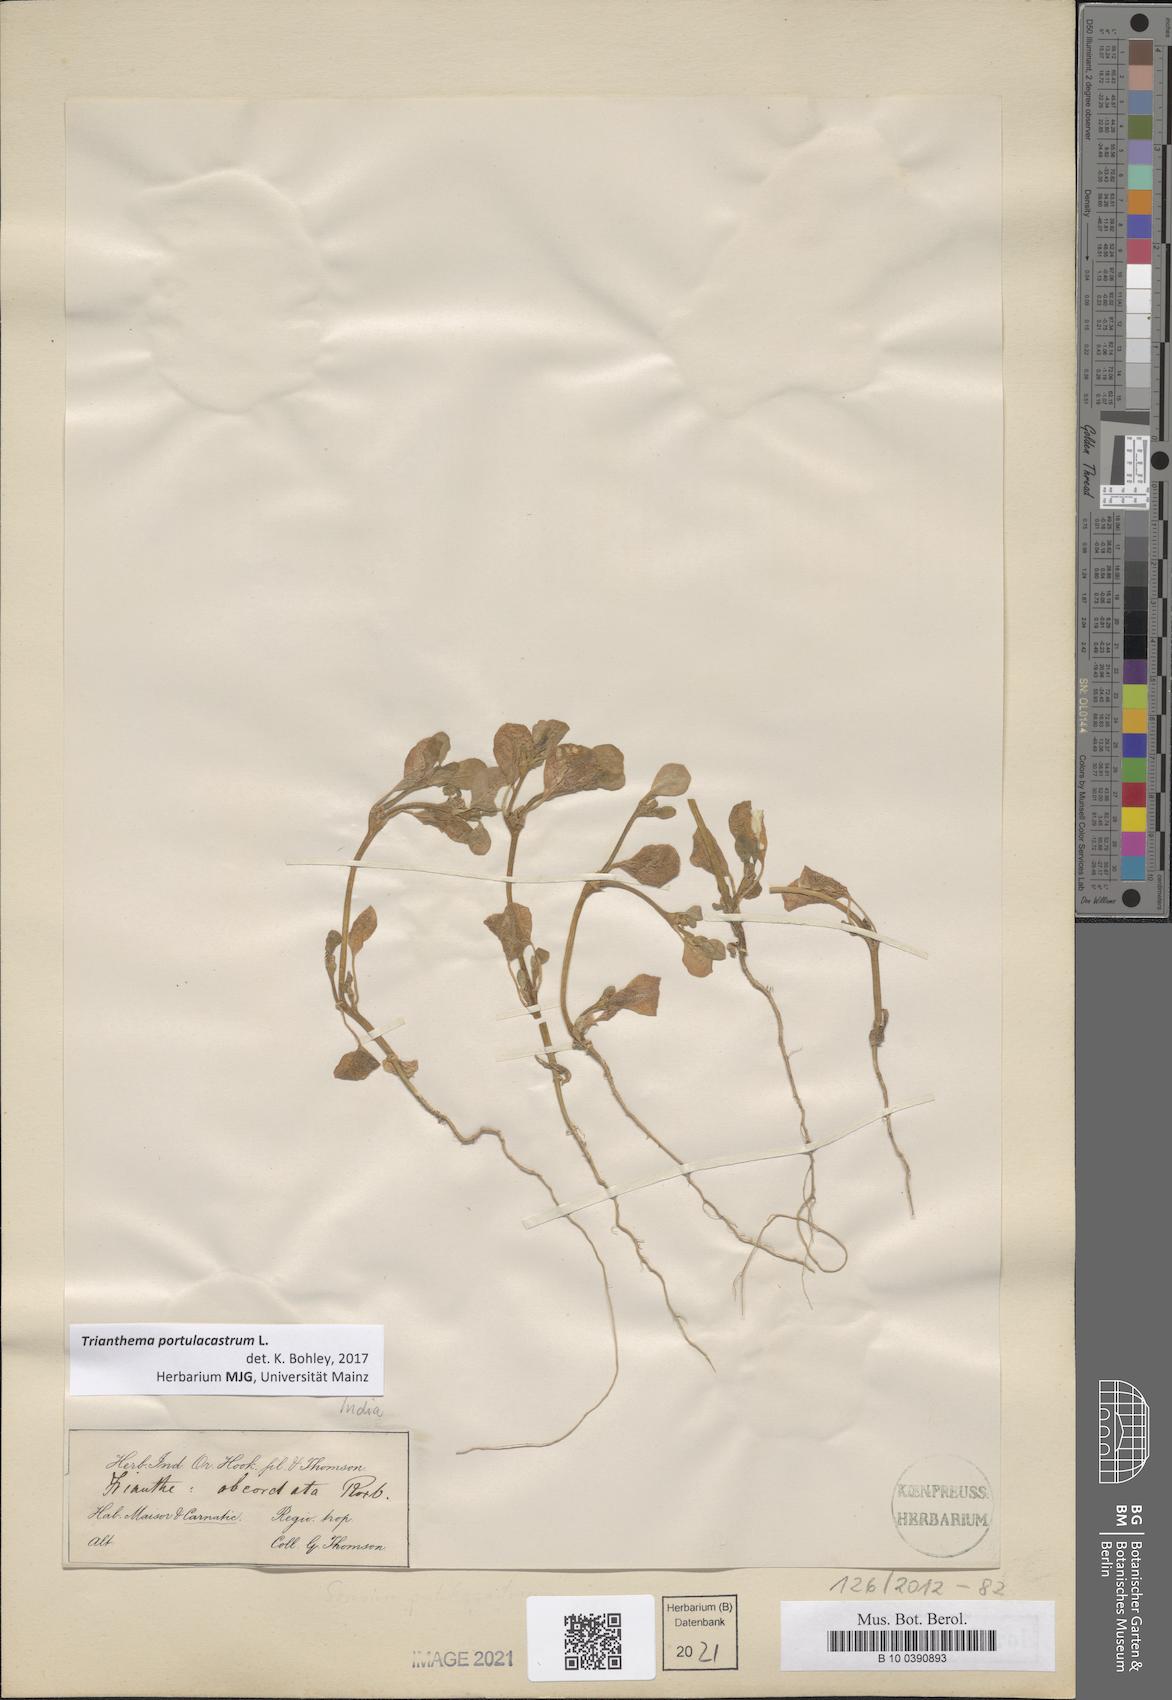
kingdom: Plantae
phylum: Tracheophyta
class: Magnoliopsida
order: Caryophyllales
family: Aizoaceae
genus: Trianthema
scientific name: Trianthema portulacastrum
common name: Desert horsepurslane
